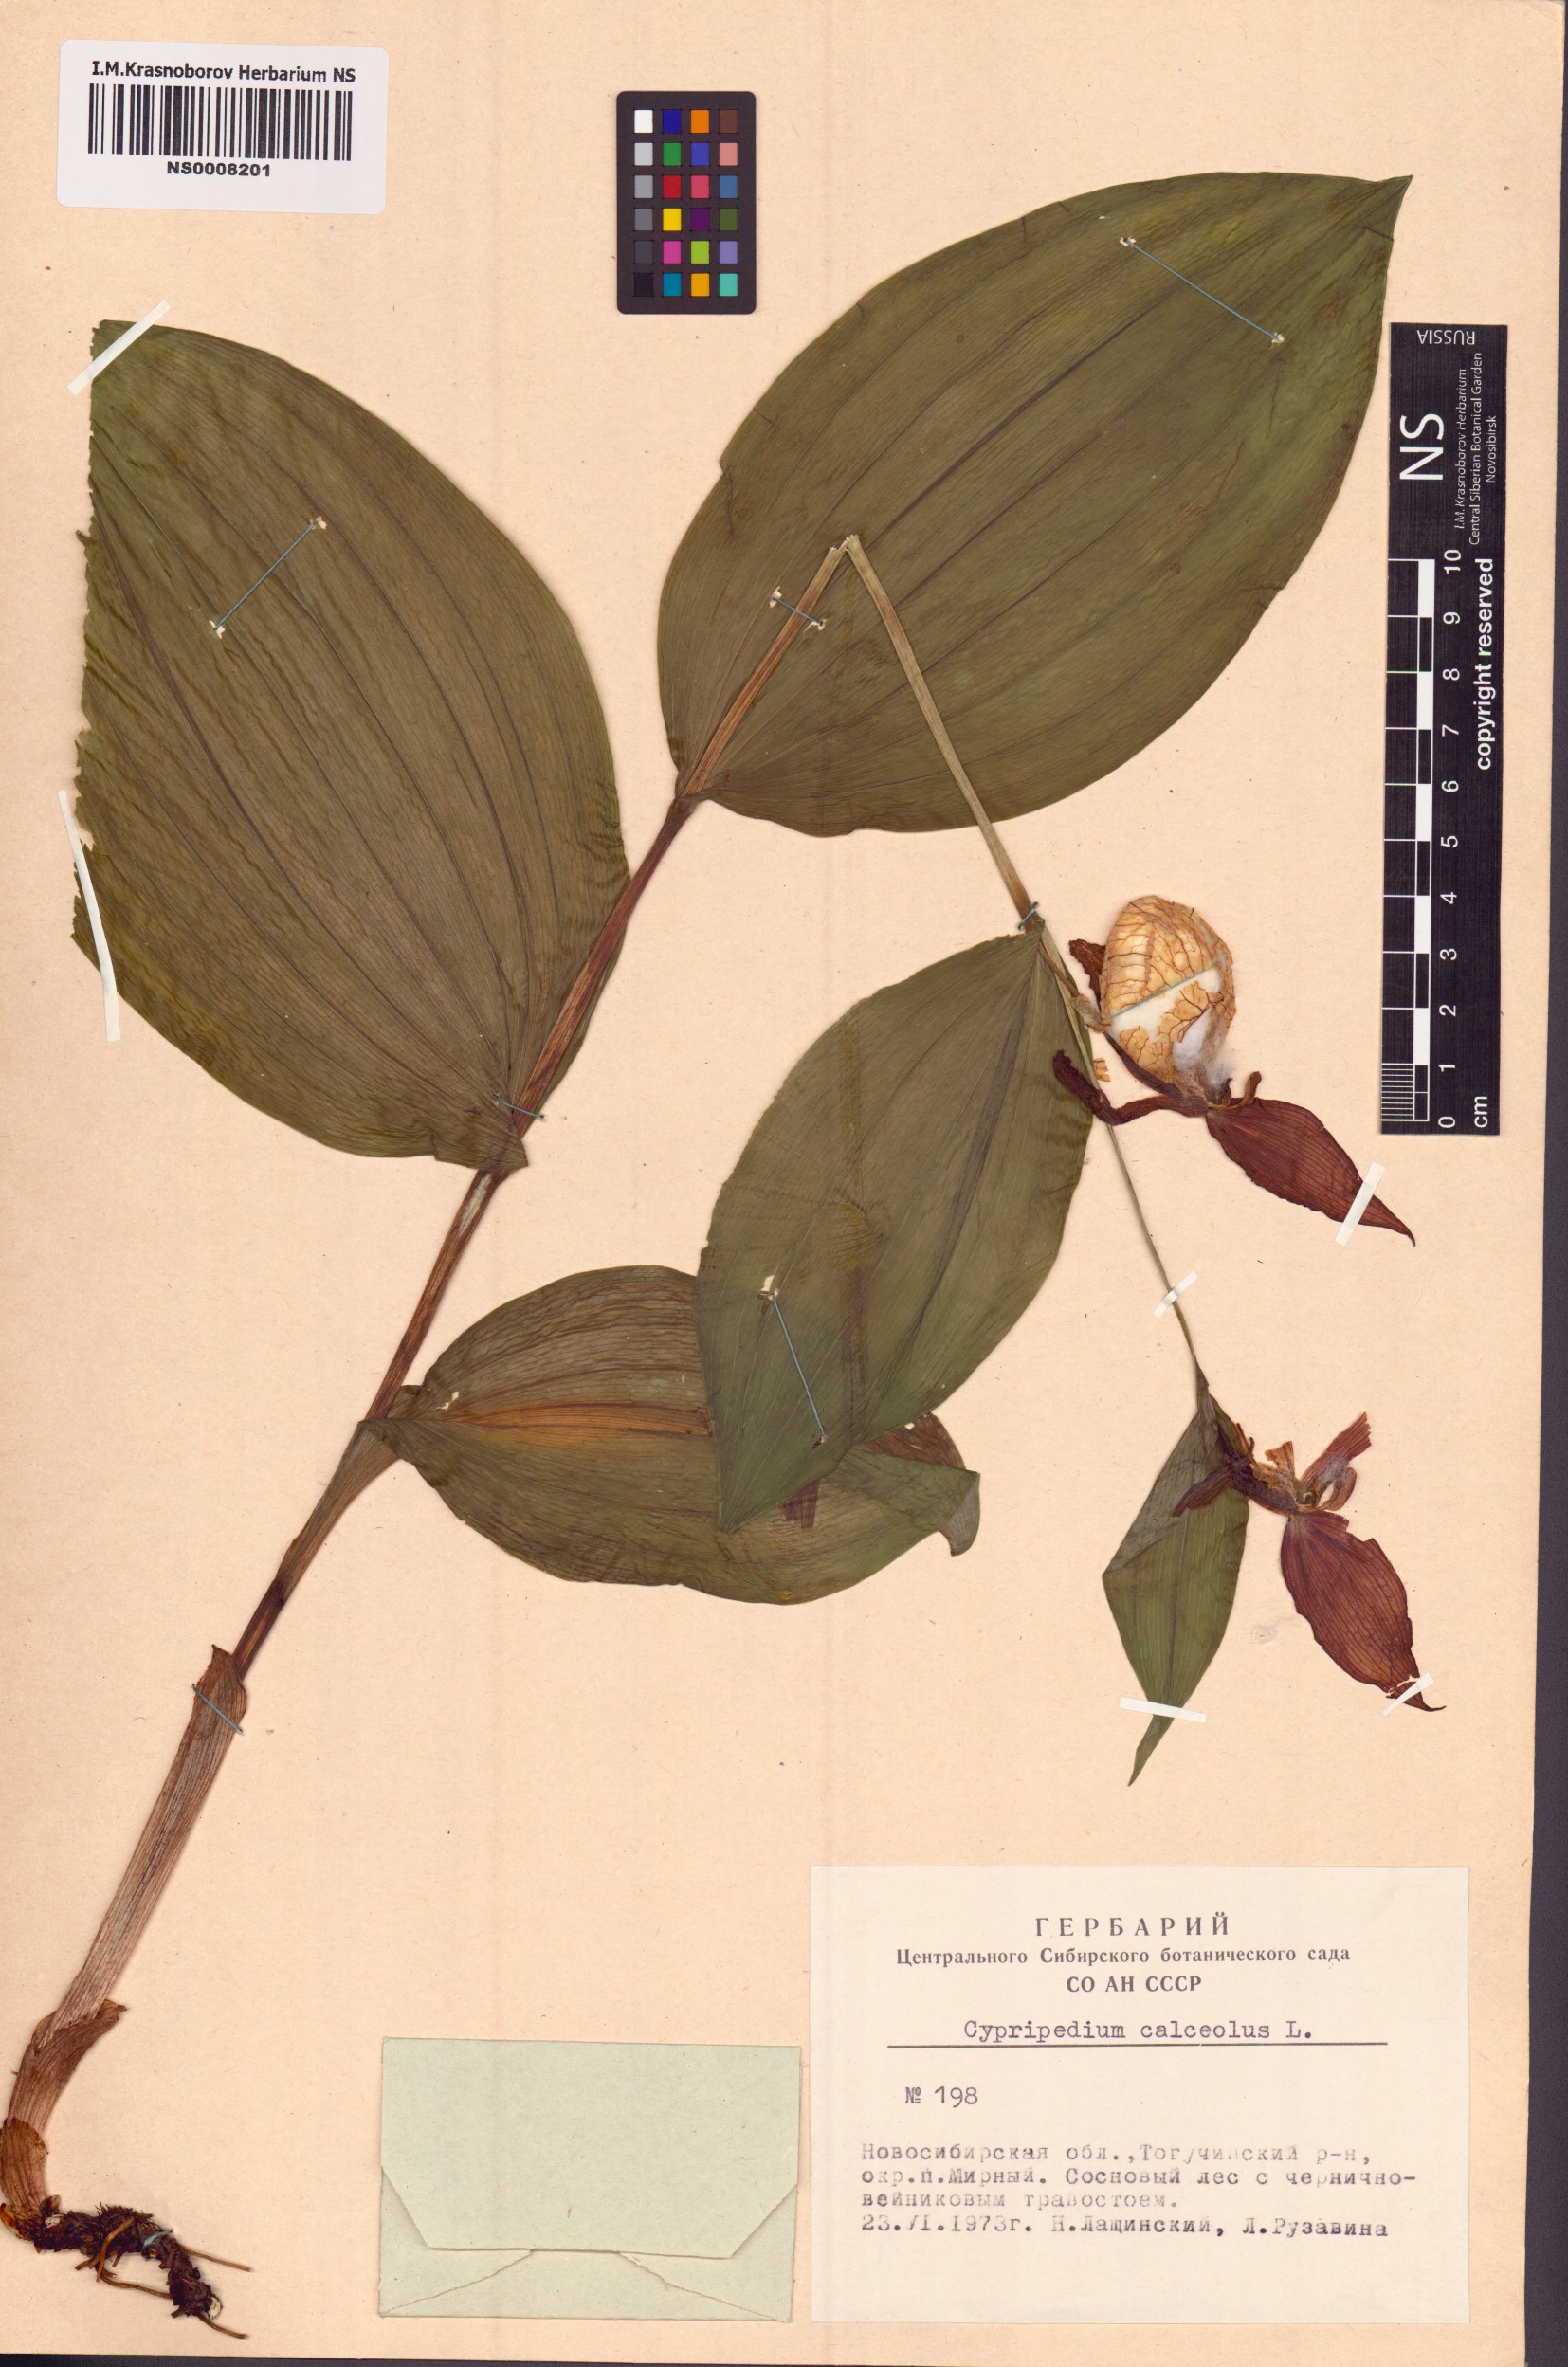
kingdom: Plantae
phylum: Tracheophyta
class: Liliopsida
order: Asparagales
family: Orchidaceae
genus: Cypripedium
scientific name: Cypripedium calceolus
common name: Lady's-slipper
